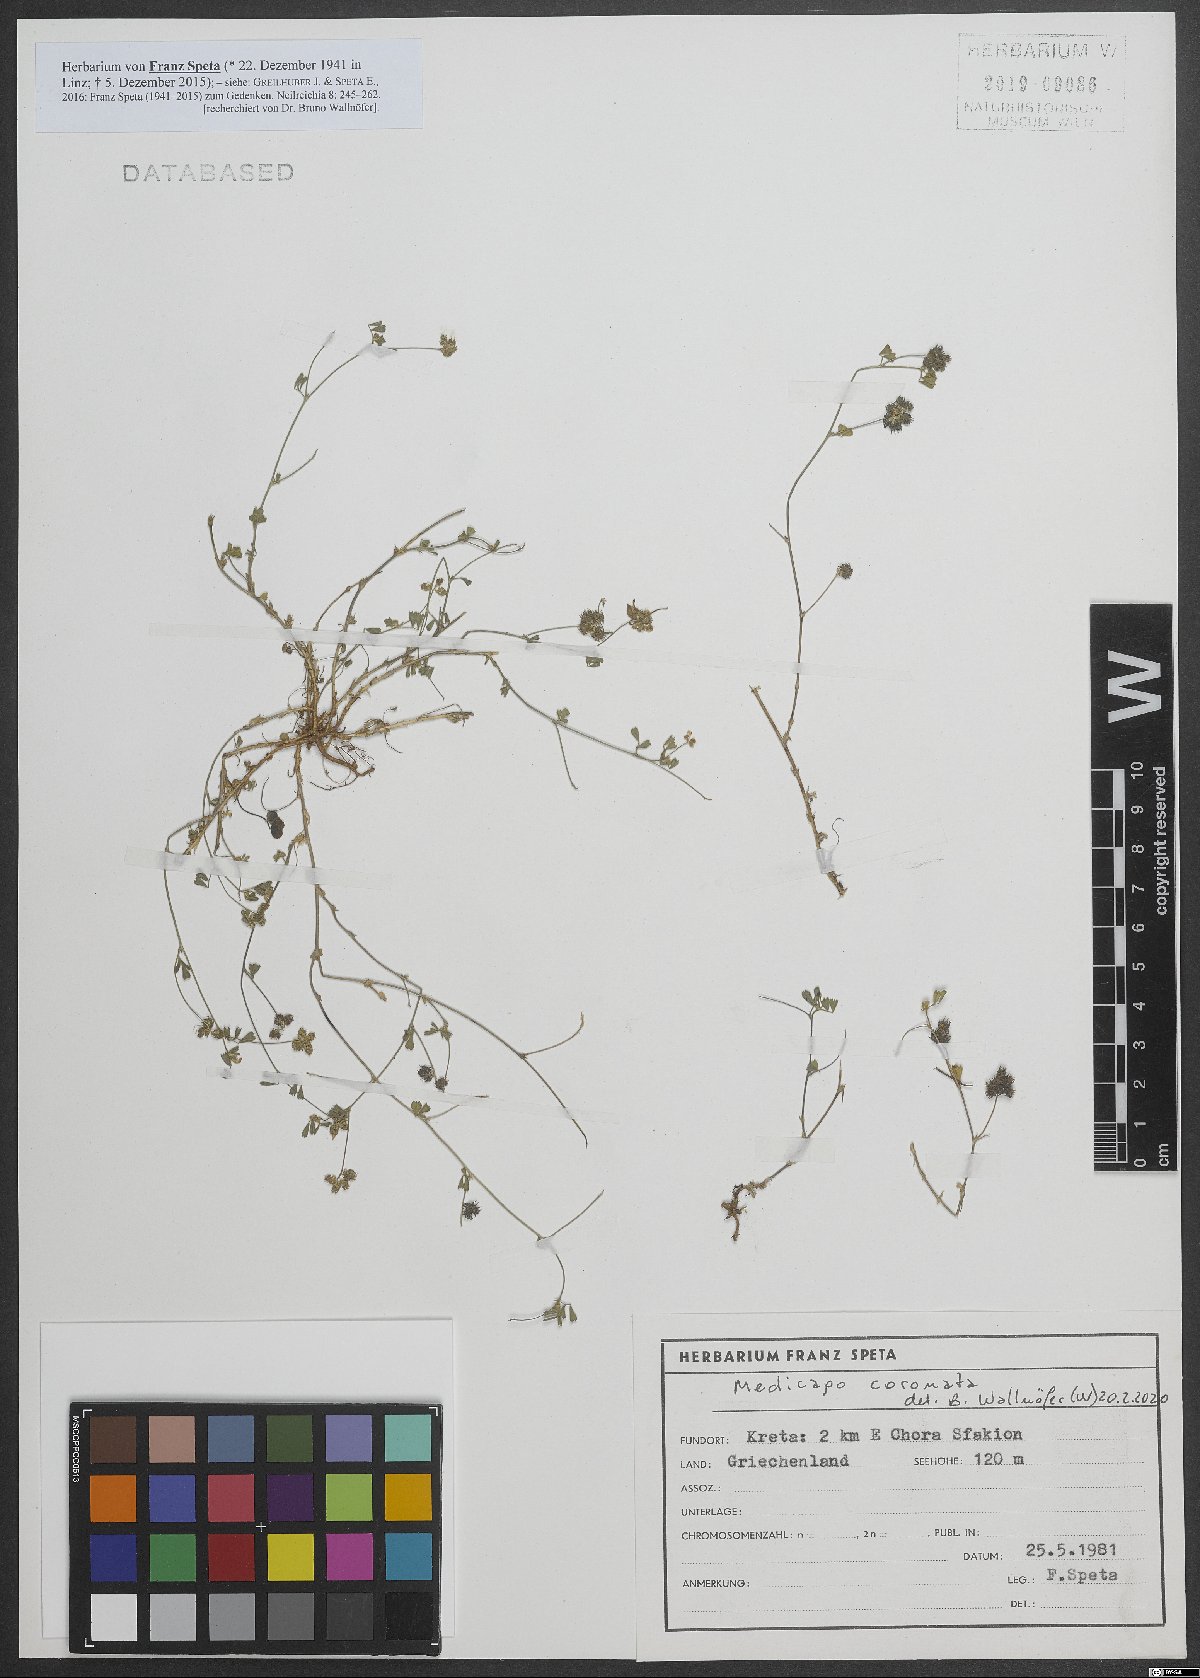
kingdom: Plantae
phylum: Tracheophyta
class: Magnoliopsida
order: Fabales
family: Fabaceae
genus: Medicago
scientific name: Medicago coronata
